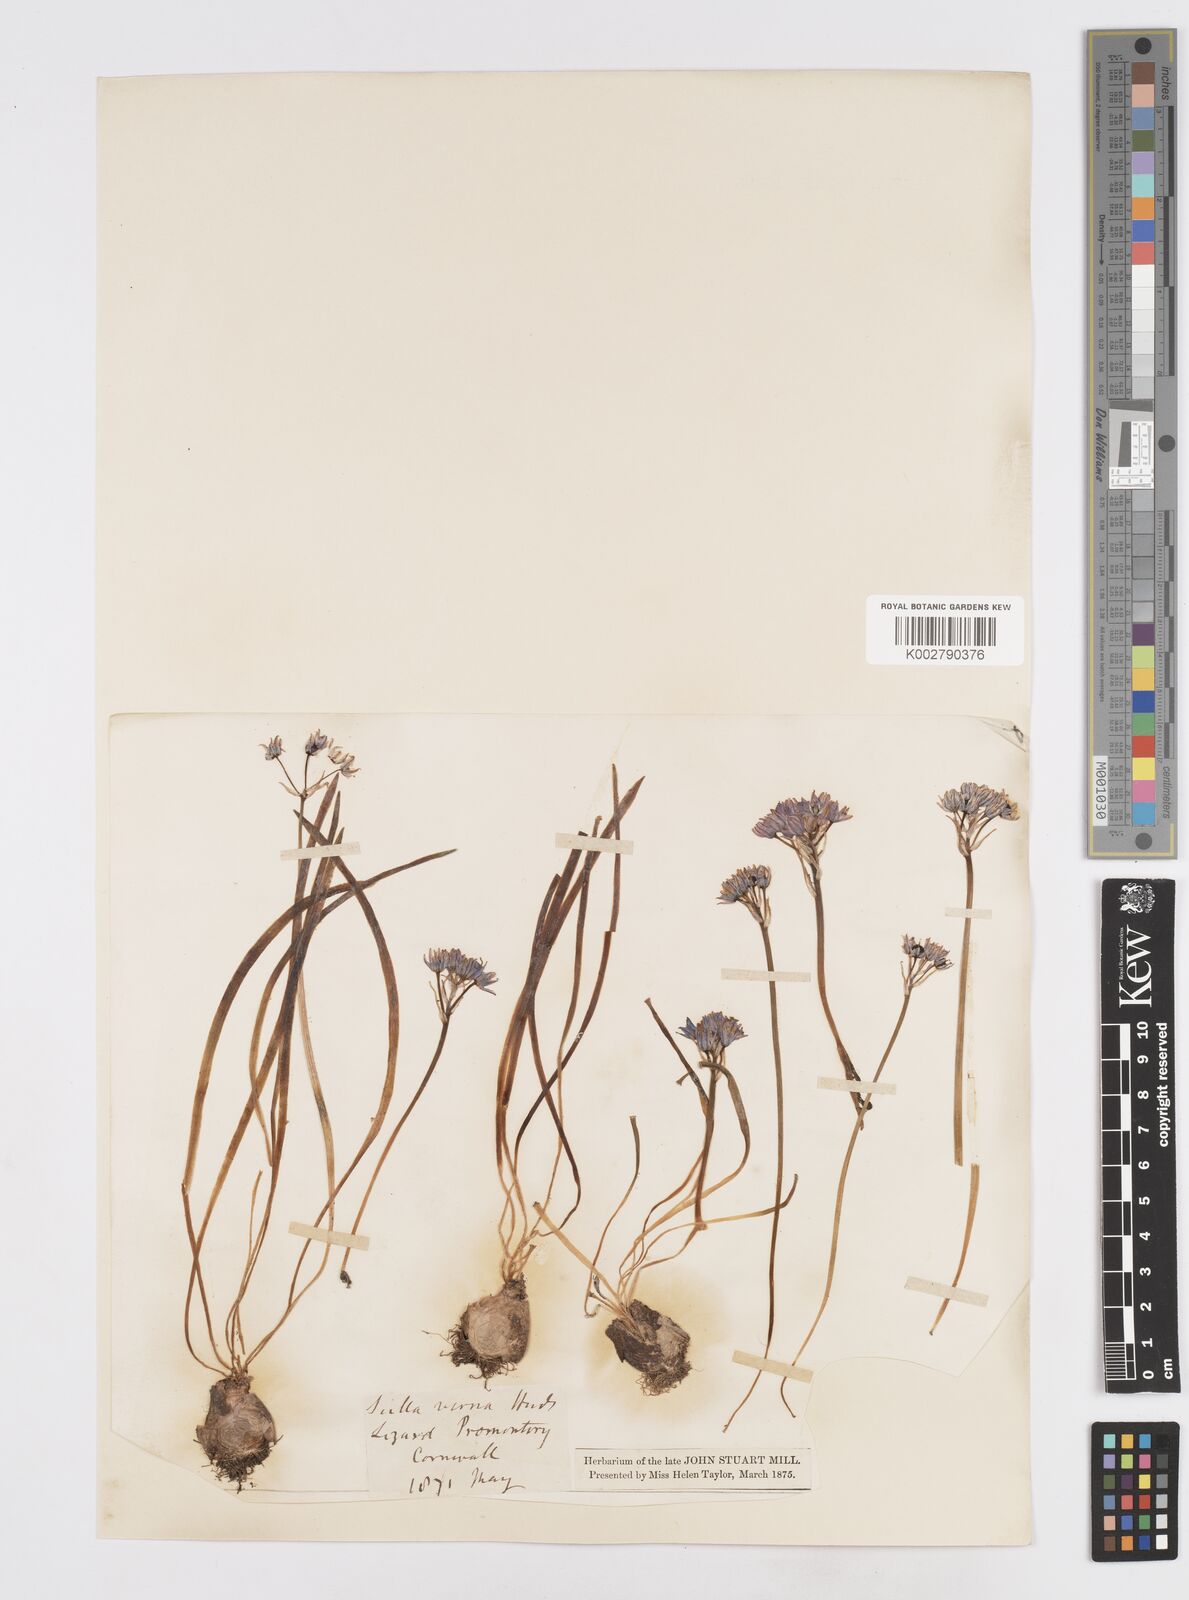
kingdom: Plantae
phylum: Tracheophyta
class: Liliopsida
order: Asparagales
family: Asparagaceae
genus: Scilla
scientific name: Scilla verna
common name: Spring squill
